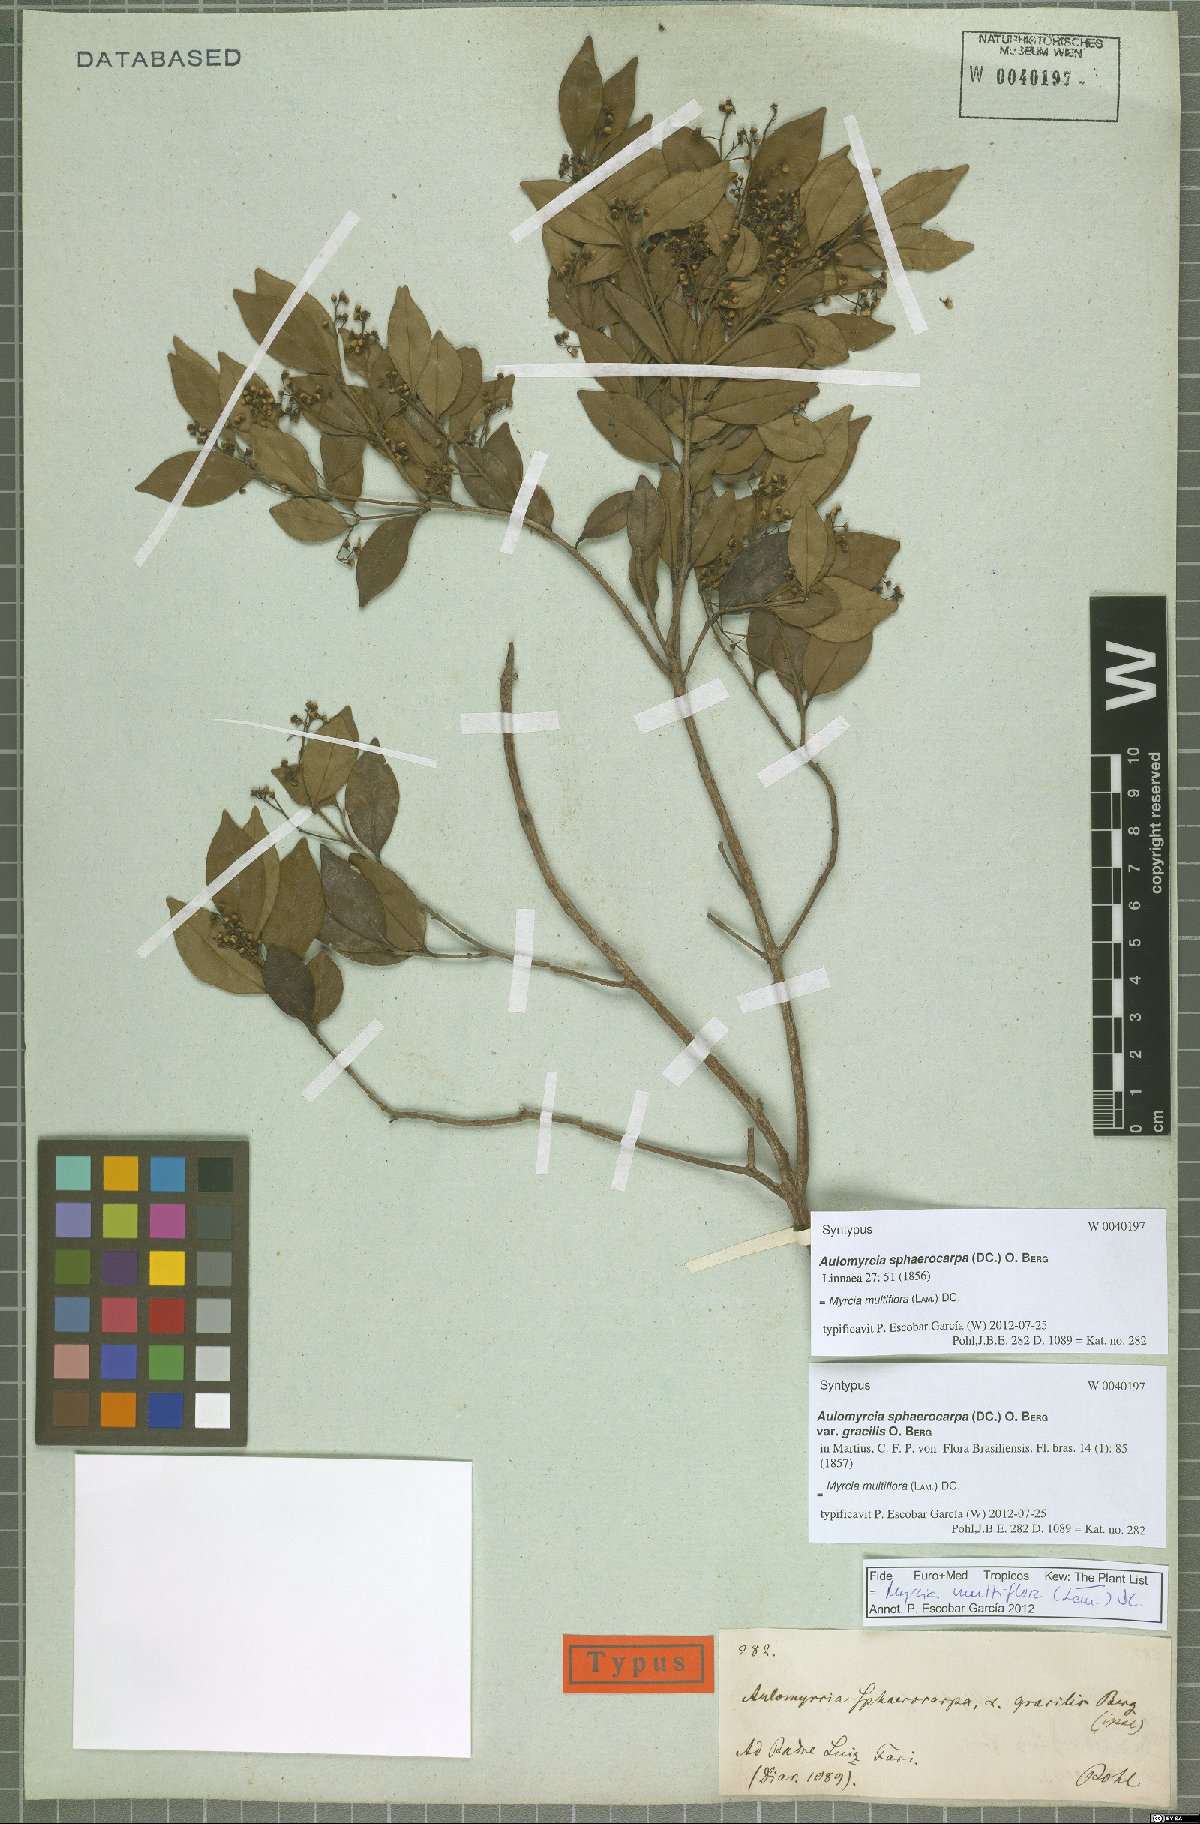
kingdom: Plantae
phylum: Tracheophyta
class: Magnoliopsida
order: Myrtales
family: Myrtaceae
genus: Myrcia
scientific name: Myrcia multiflora
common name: Pedra hume
